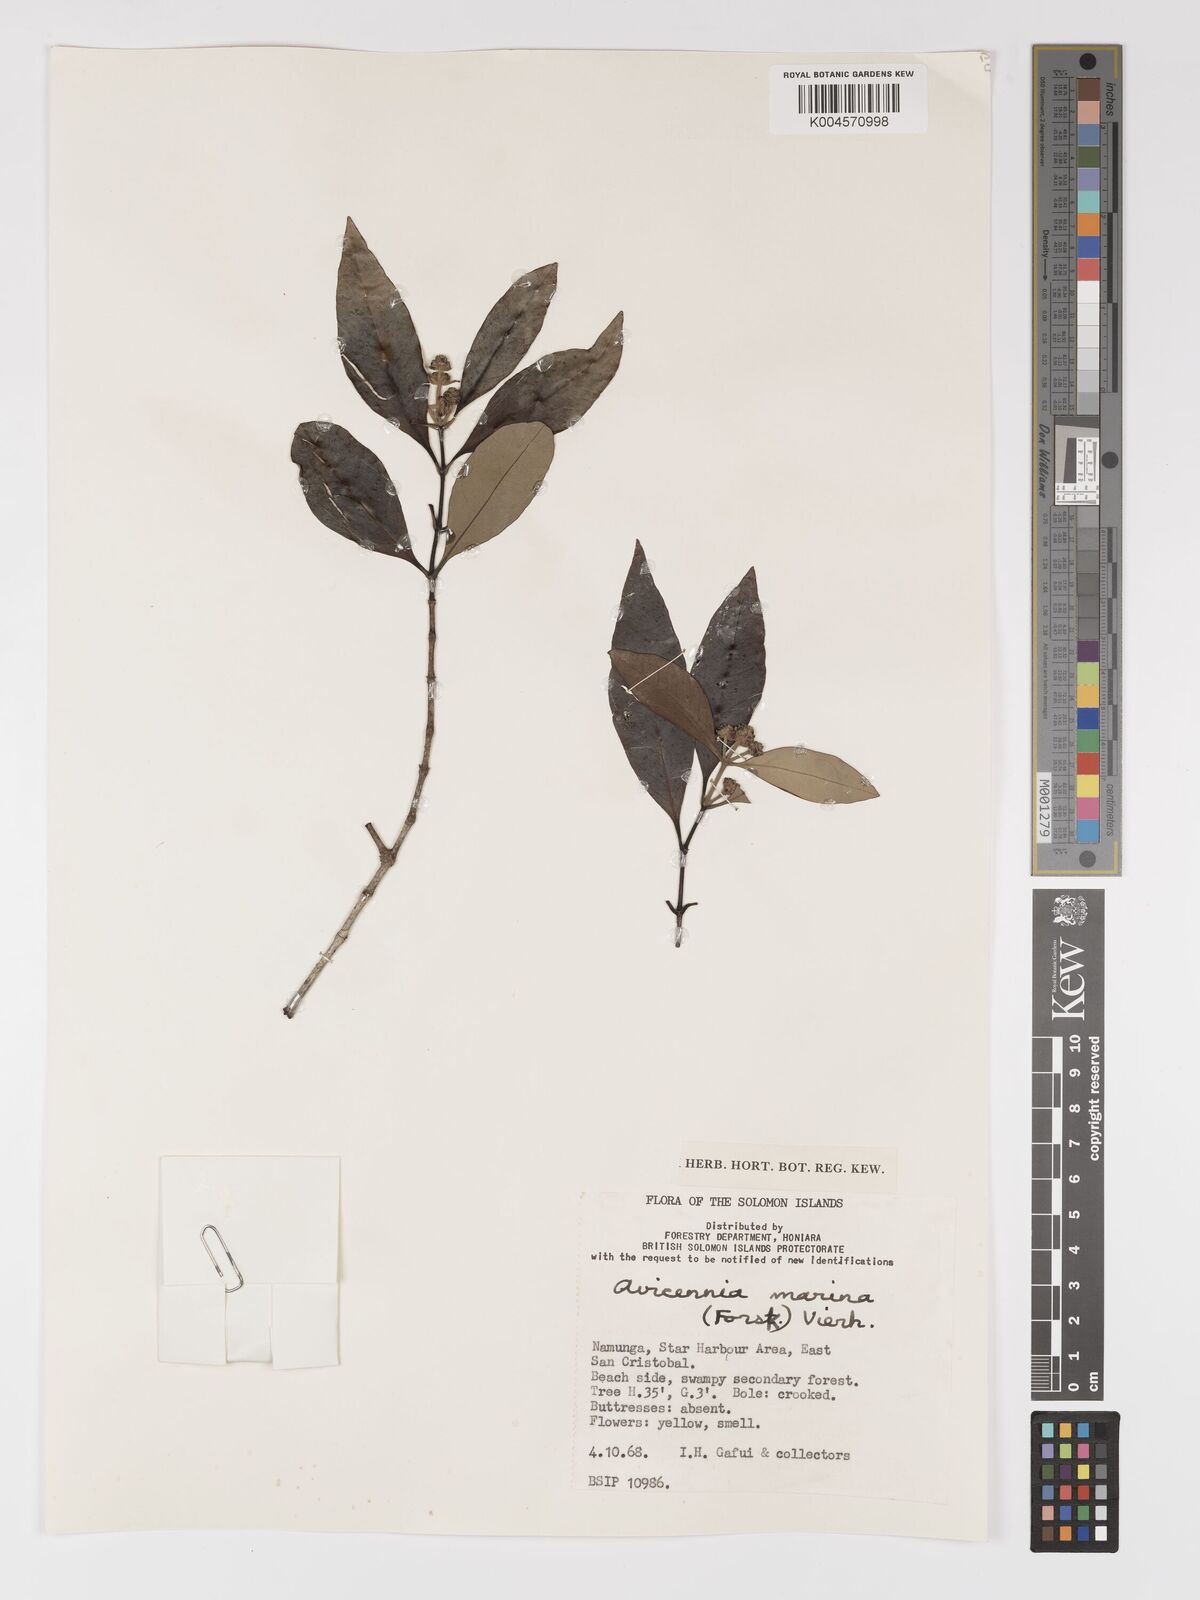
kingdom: Plantae
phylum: Tracheophyta
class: Magnoliopsida
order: Lamiales
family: Acanthaceae
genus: Avicennia
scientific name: Avicennia marina
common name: Gray mangrove
